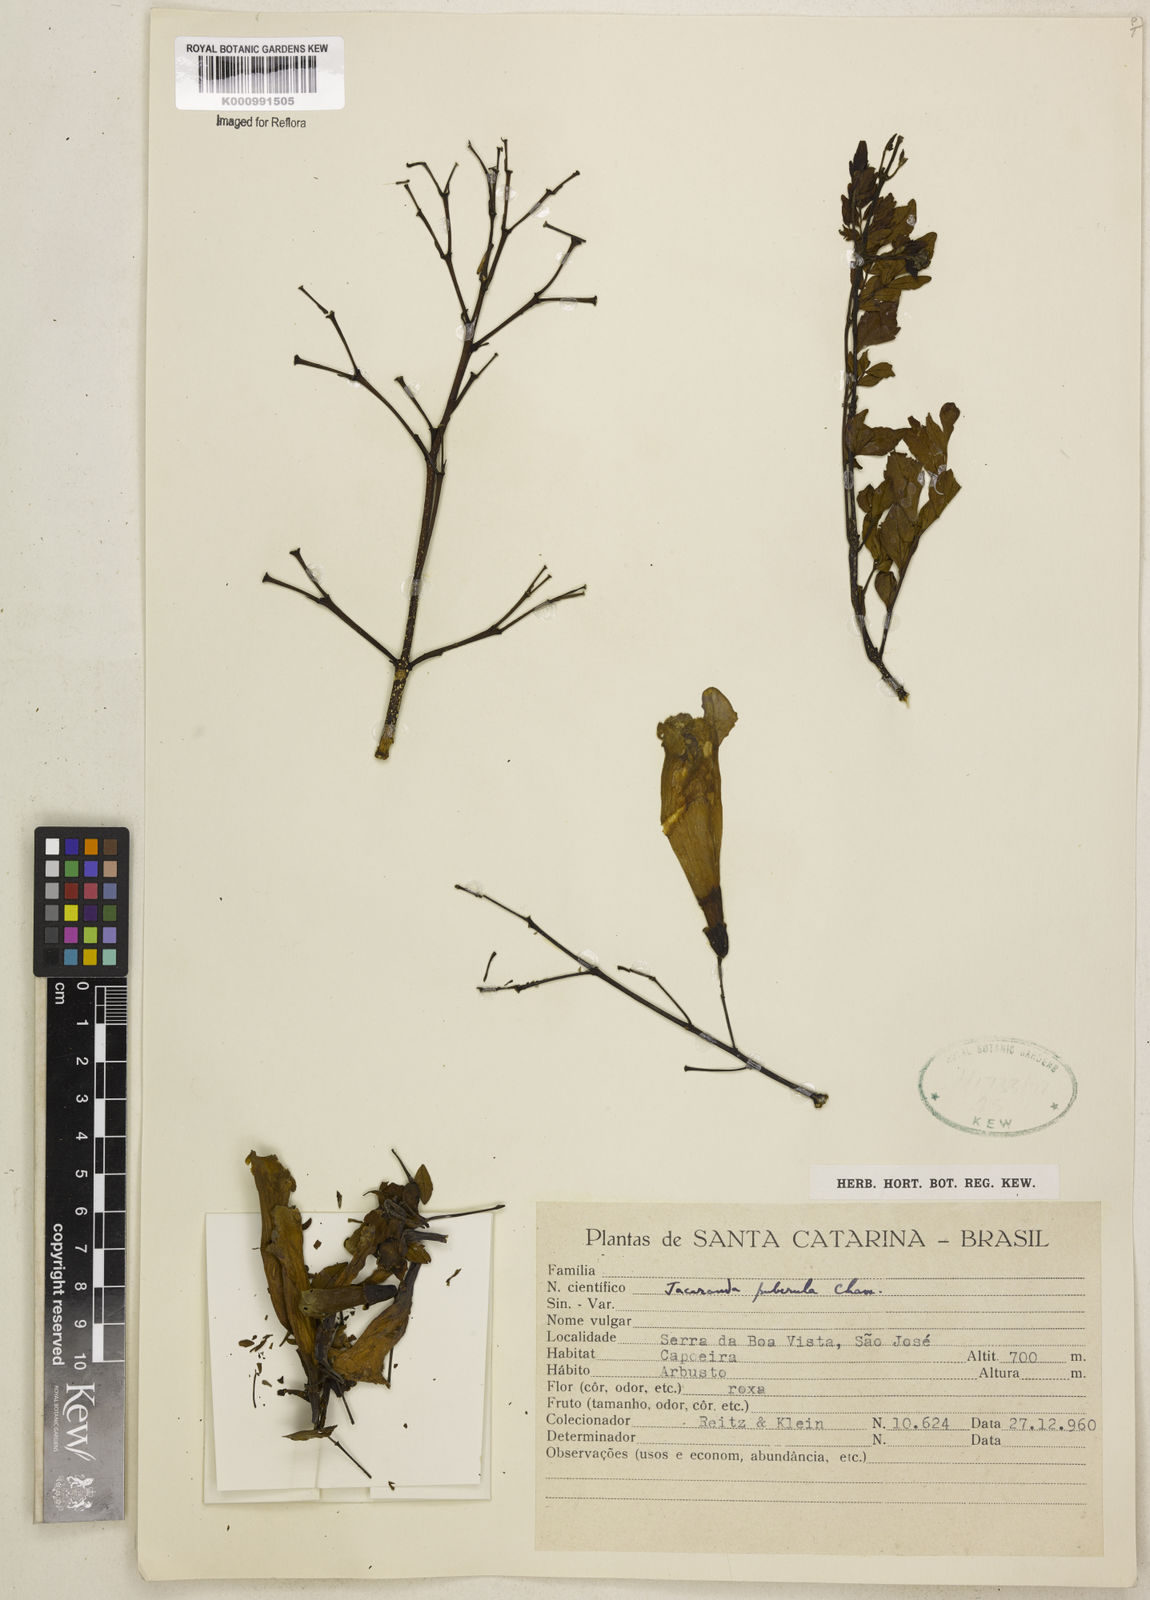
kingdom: Plantae
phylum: Tracheophyta
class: Magnoliopsida
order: Lamiales
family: Bignoniaceae
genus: Jacaranda
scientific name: Jacaranda puberula
